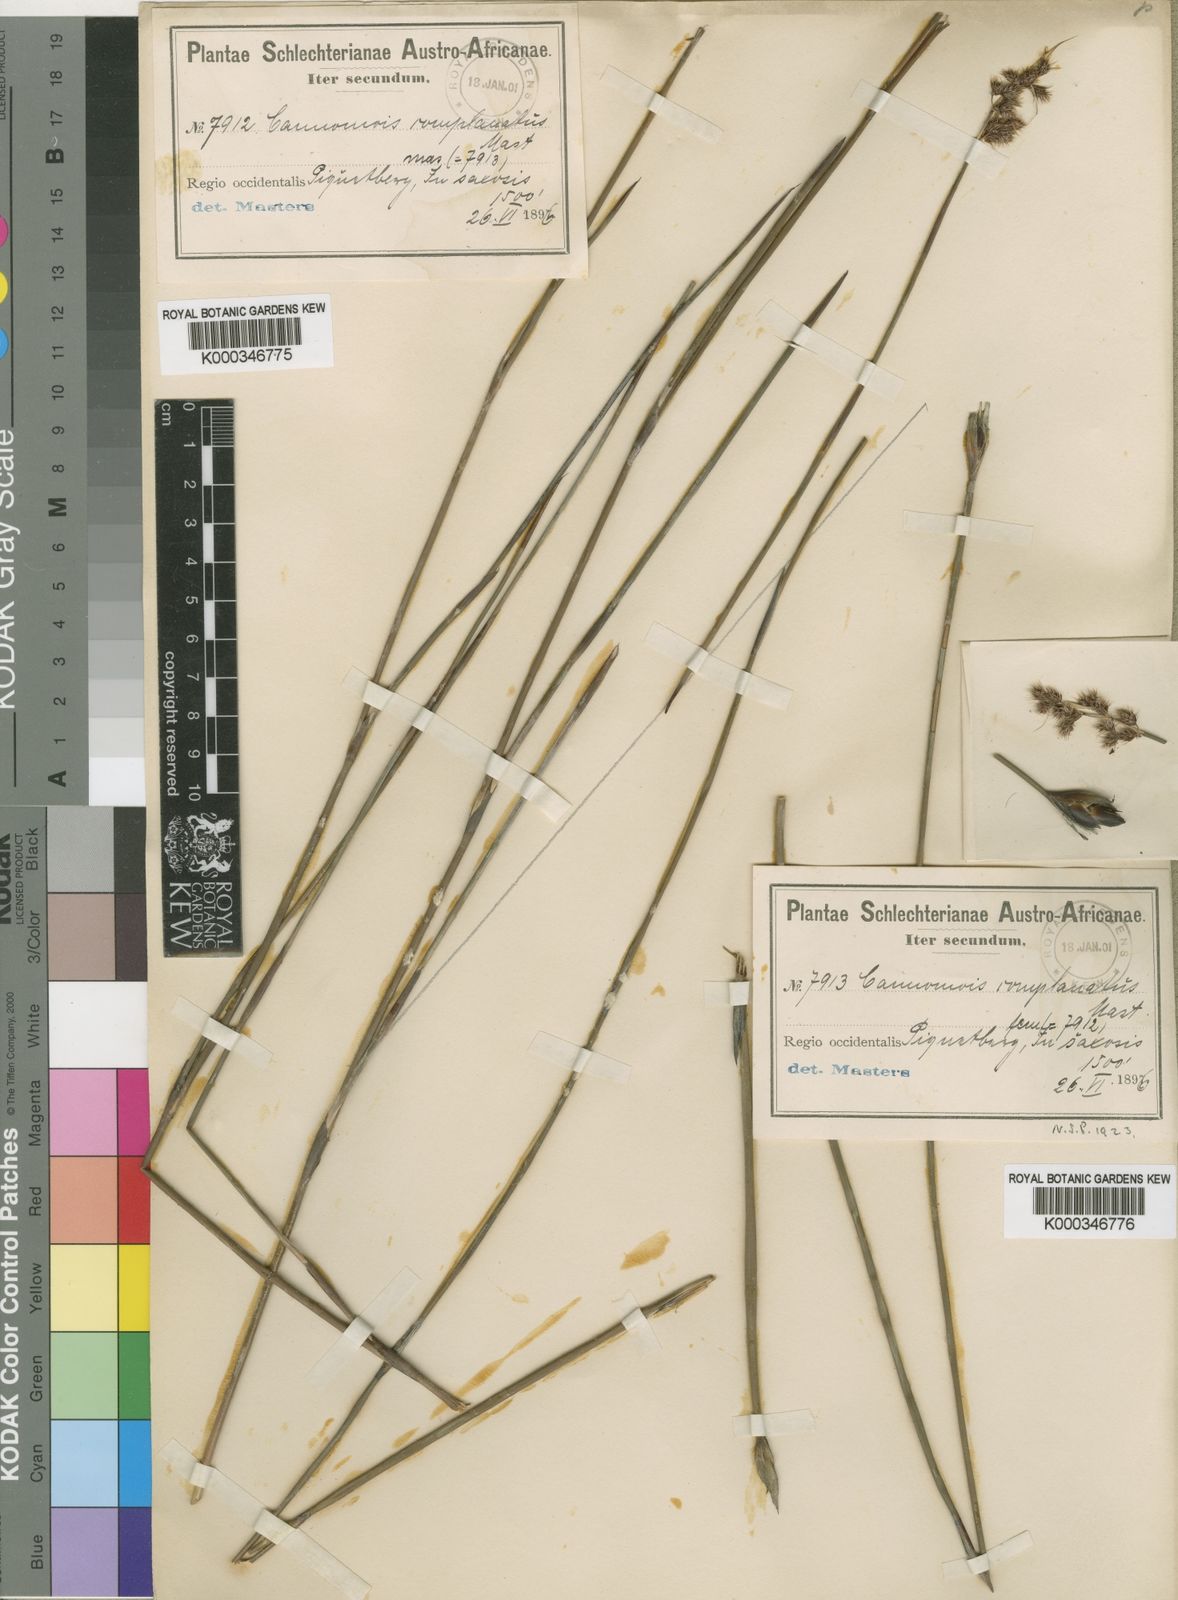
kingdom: Plantae
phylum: Tracheophyta
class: Liliopsida
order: Poales
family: Restionaceae
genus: Cannomois
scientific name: Cannomois parviflora
